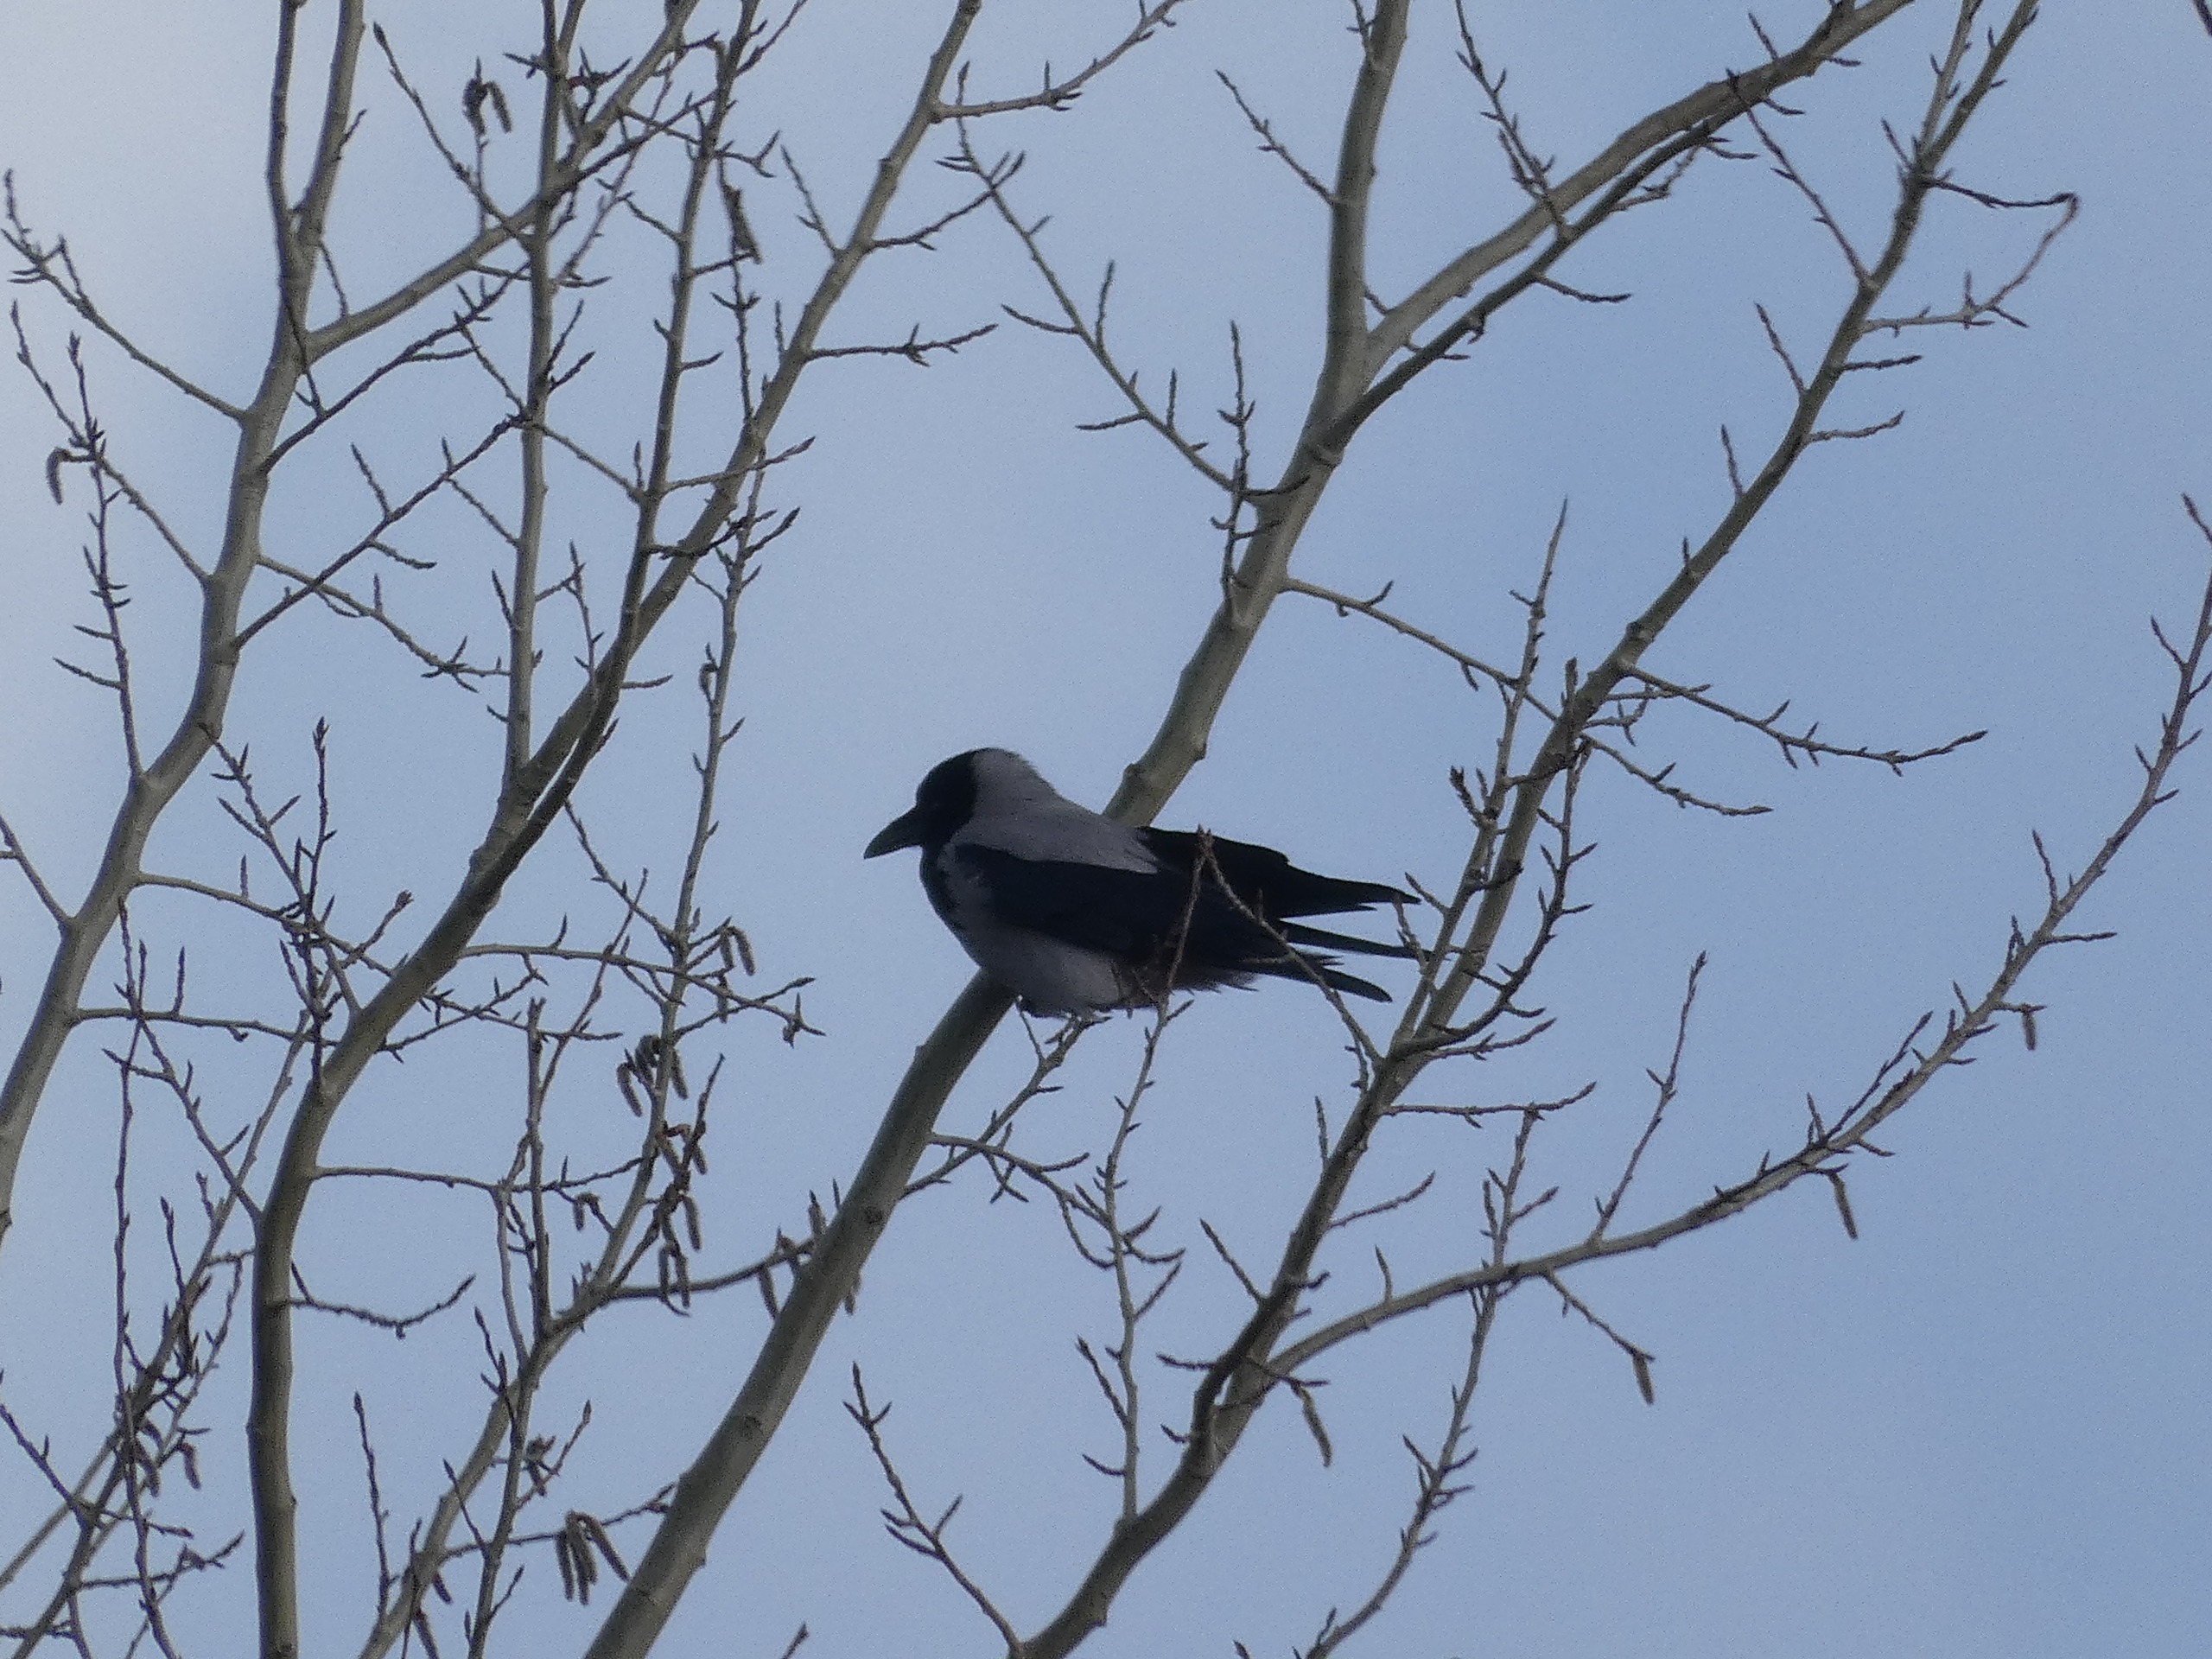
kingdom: Animalia
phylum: Chordata
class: Aves
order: Passeriformes
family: Corvidae
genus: Corvus
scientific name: Corvus cornix
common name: Gråkrage
